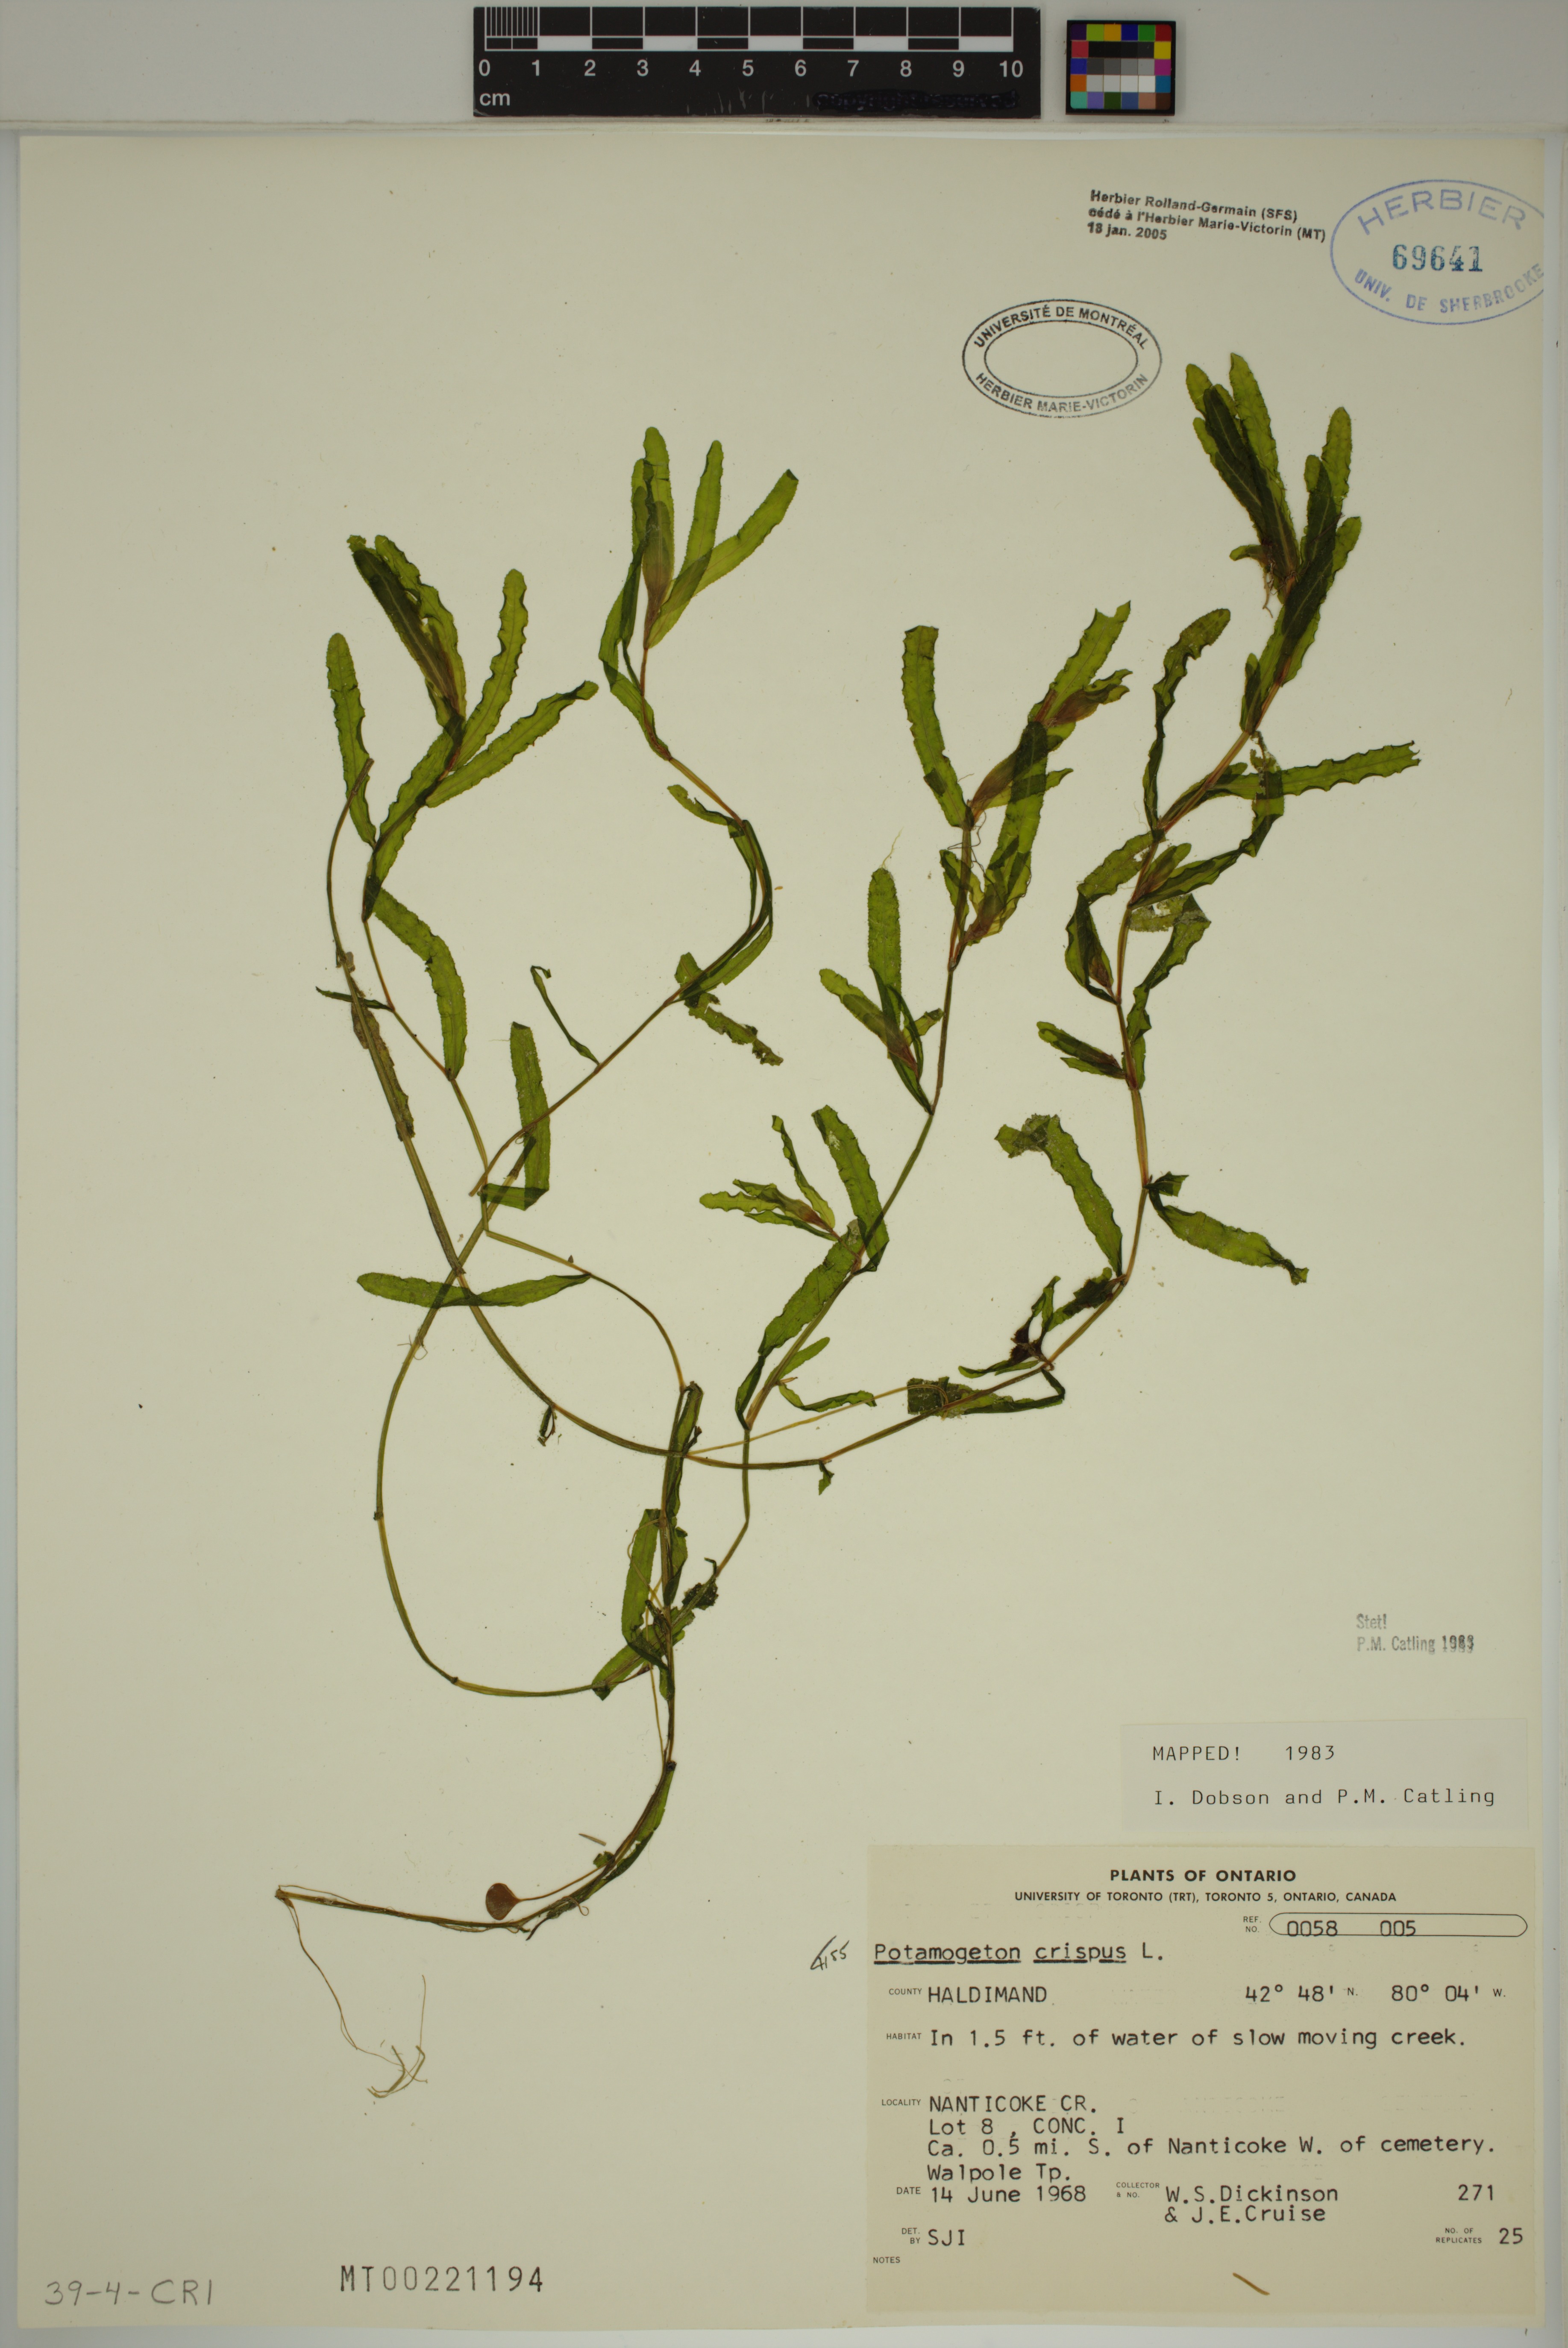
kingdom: Plantae
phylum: Tracheophyta
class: Liliopsida
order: Alismatales
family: Potamogetonaceae
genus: Potamogeton
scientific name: Potamogeton crispus
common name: Curled pondweed
